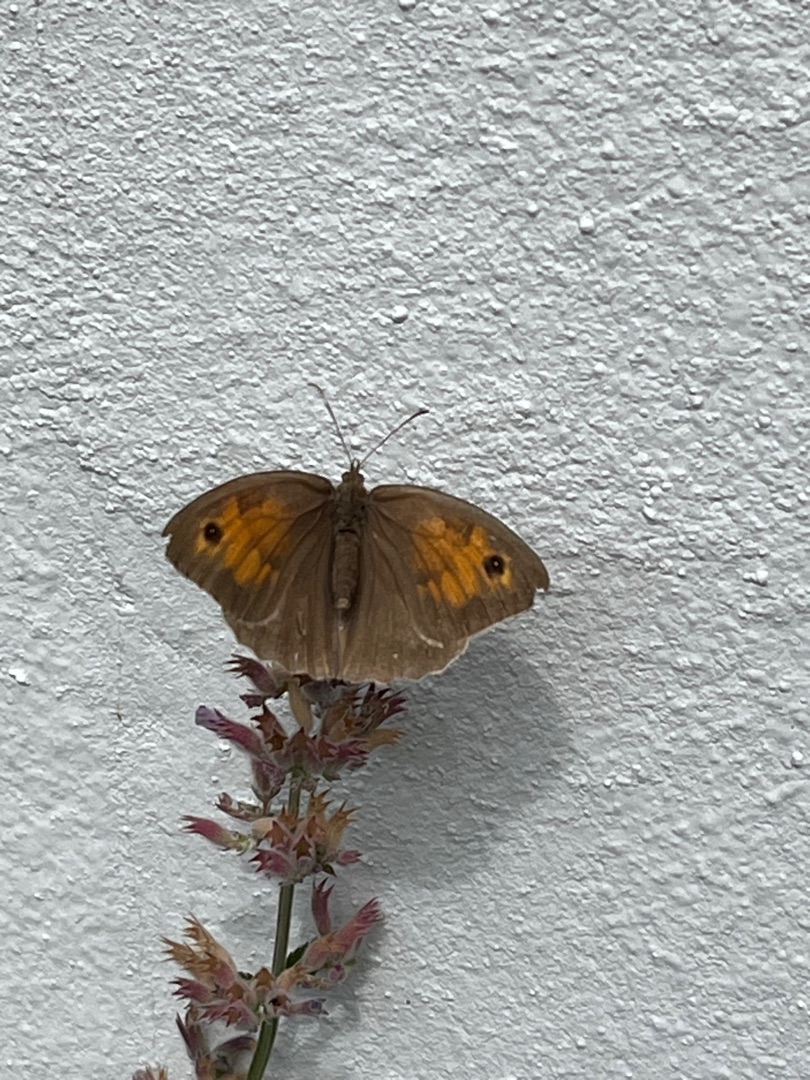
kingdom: Animalia
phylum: Arthropoda
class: Insecta
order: Lepidoptera
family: Nymphalidae
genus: Maniola
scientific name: Maniola jurtina
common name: Græsrandøje
